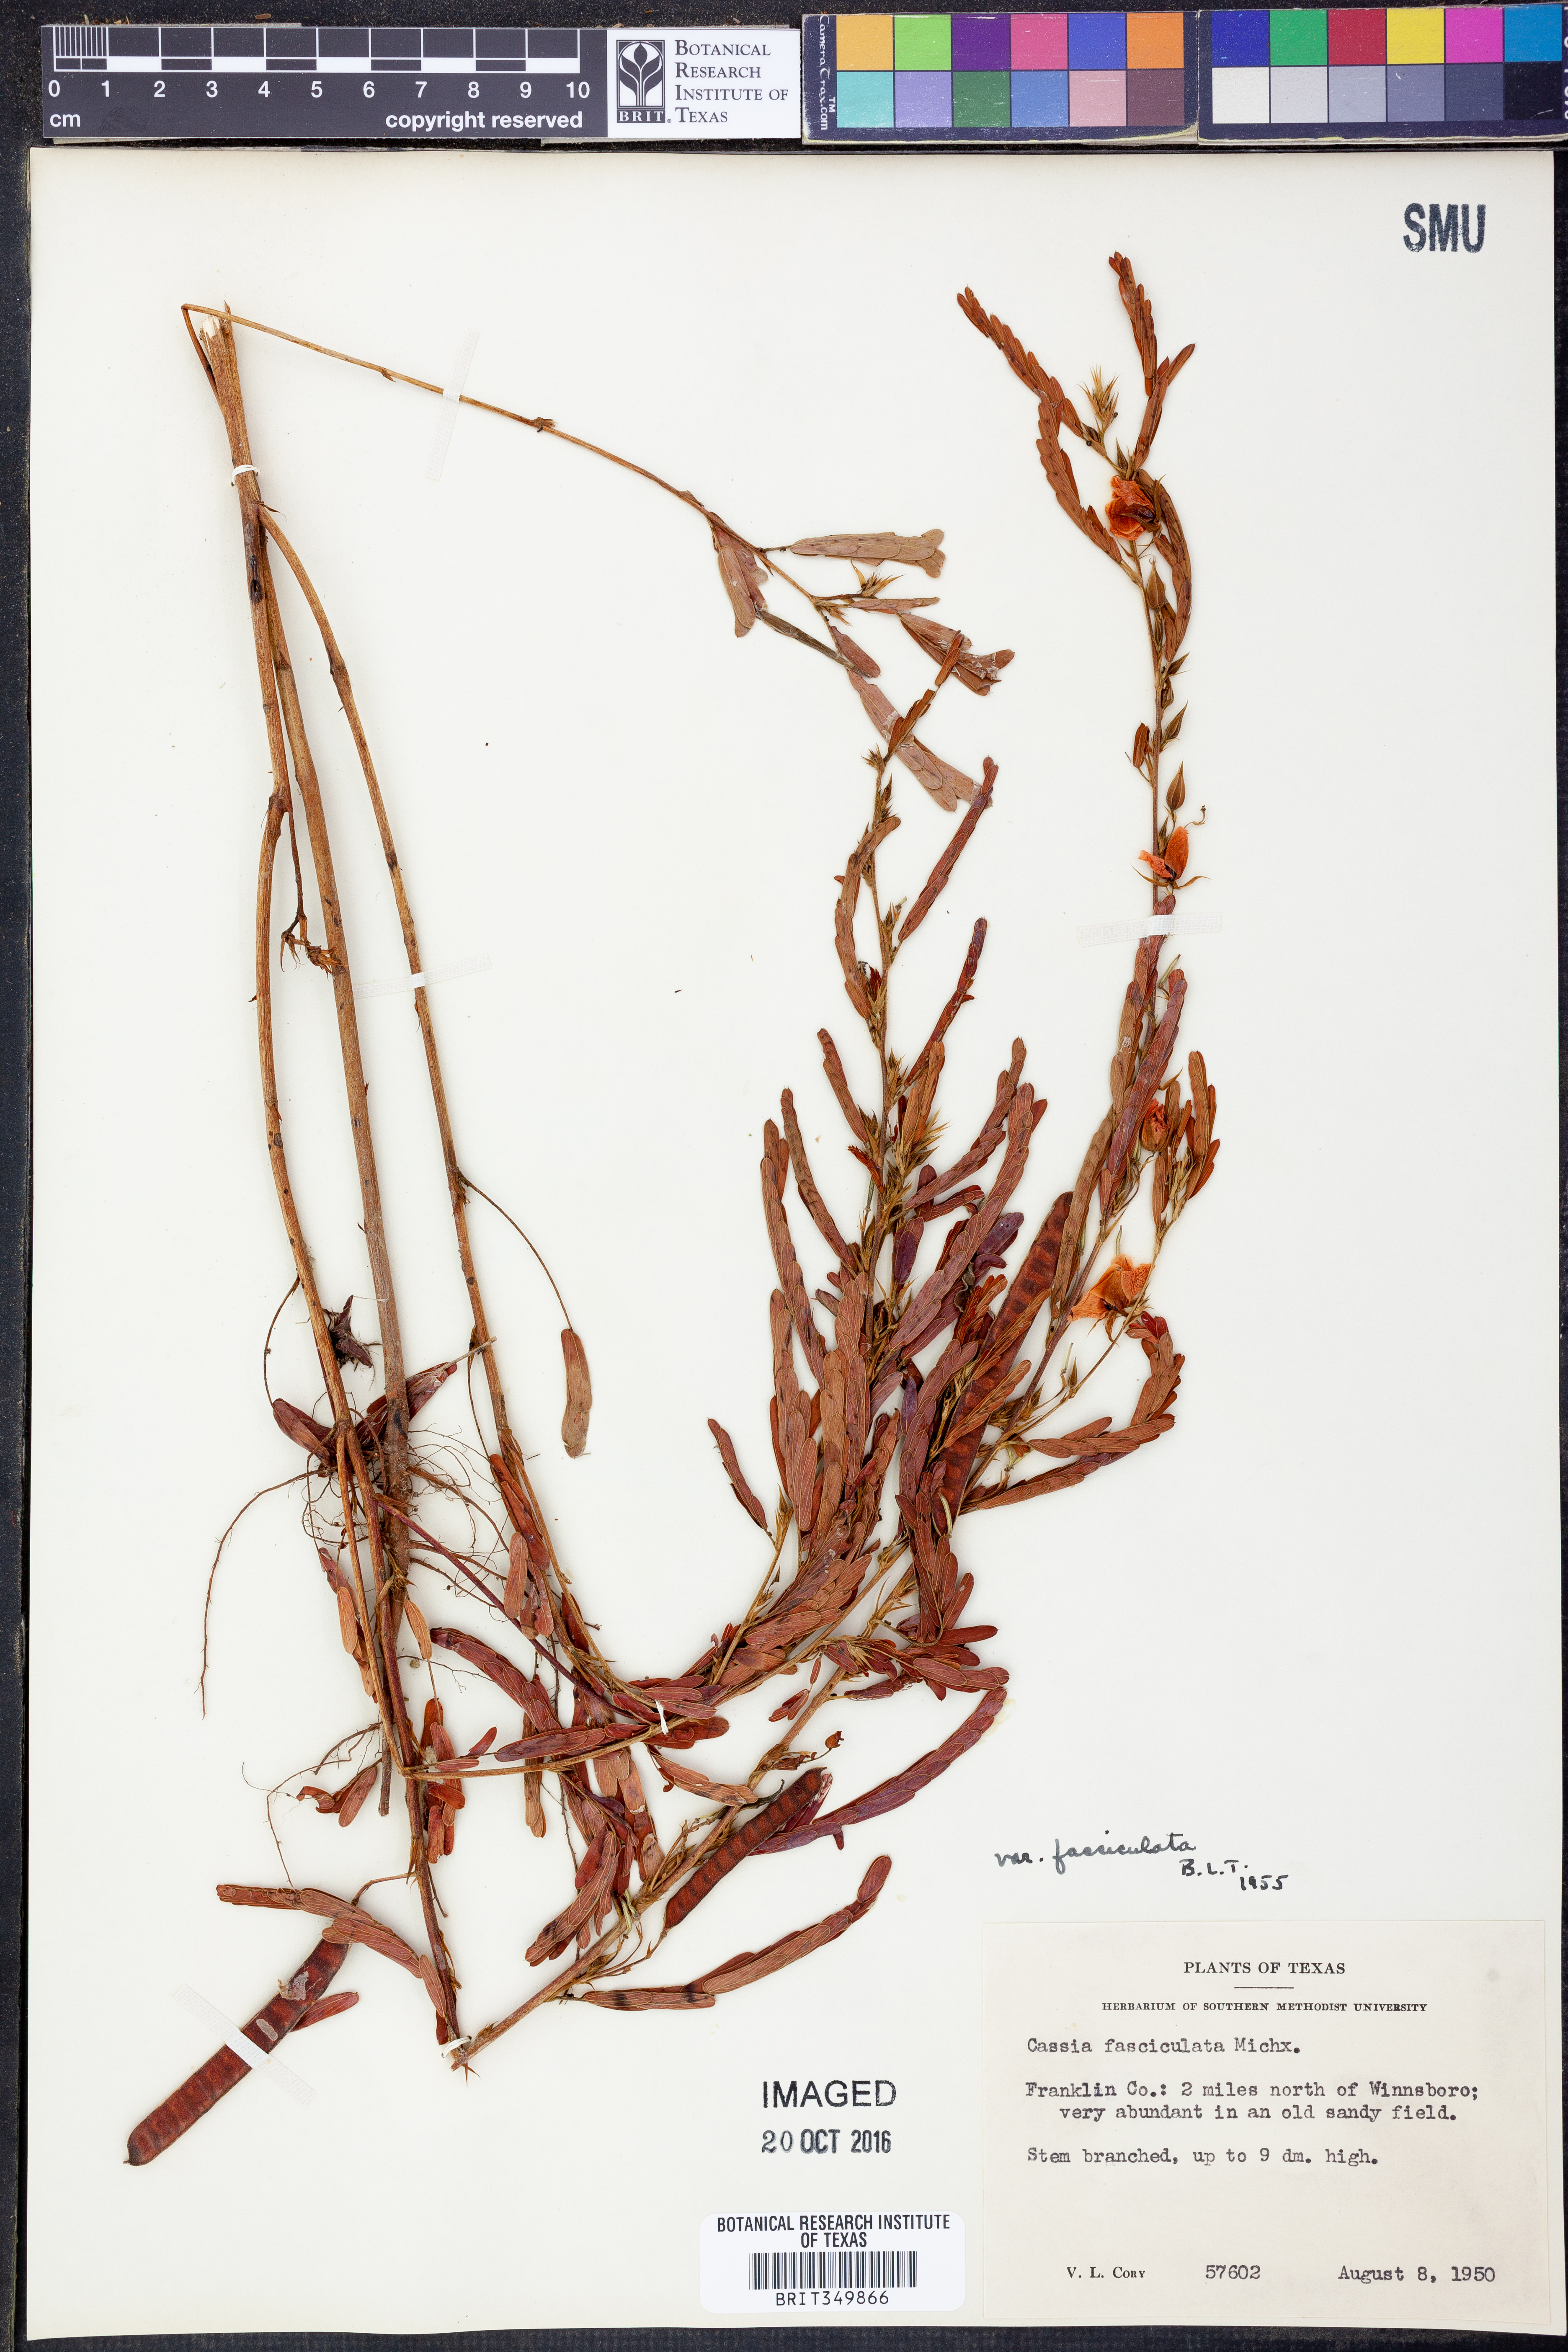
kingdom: Plantae
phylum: Tracheophyta
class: Magnoliopsida
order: Fabales
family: Fabaceae
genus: Chamaecrista
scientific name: Chamaecrista fasciculata
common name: Golden cassia
